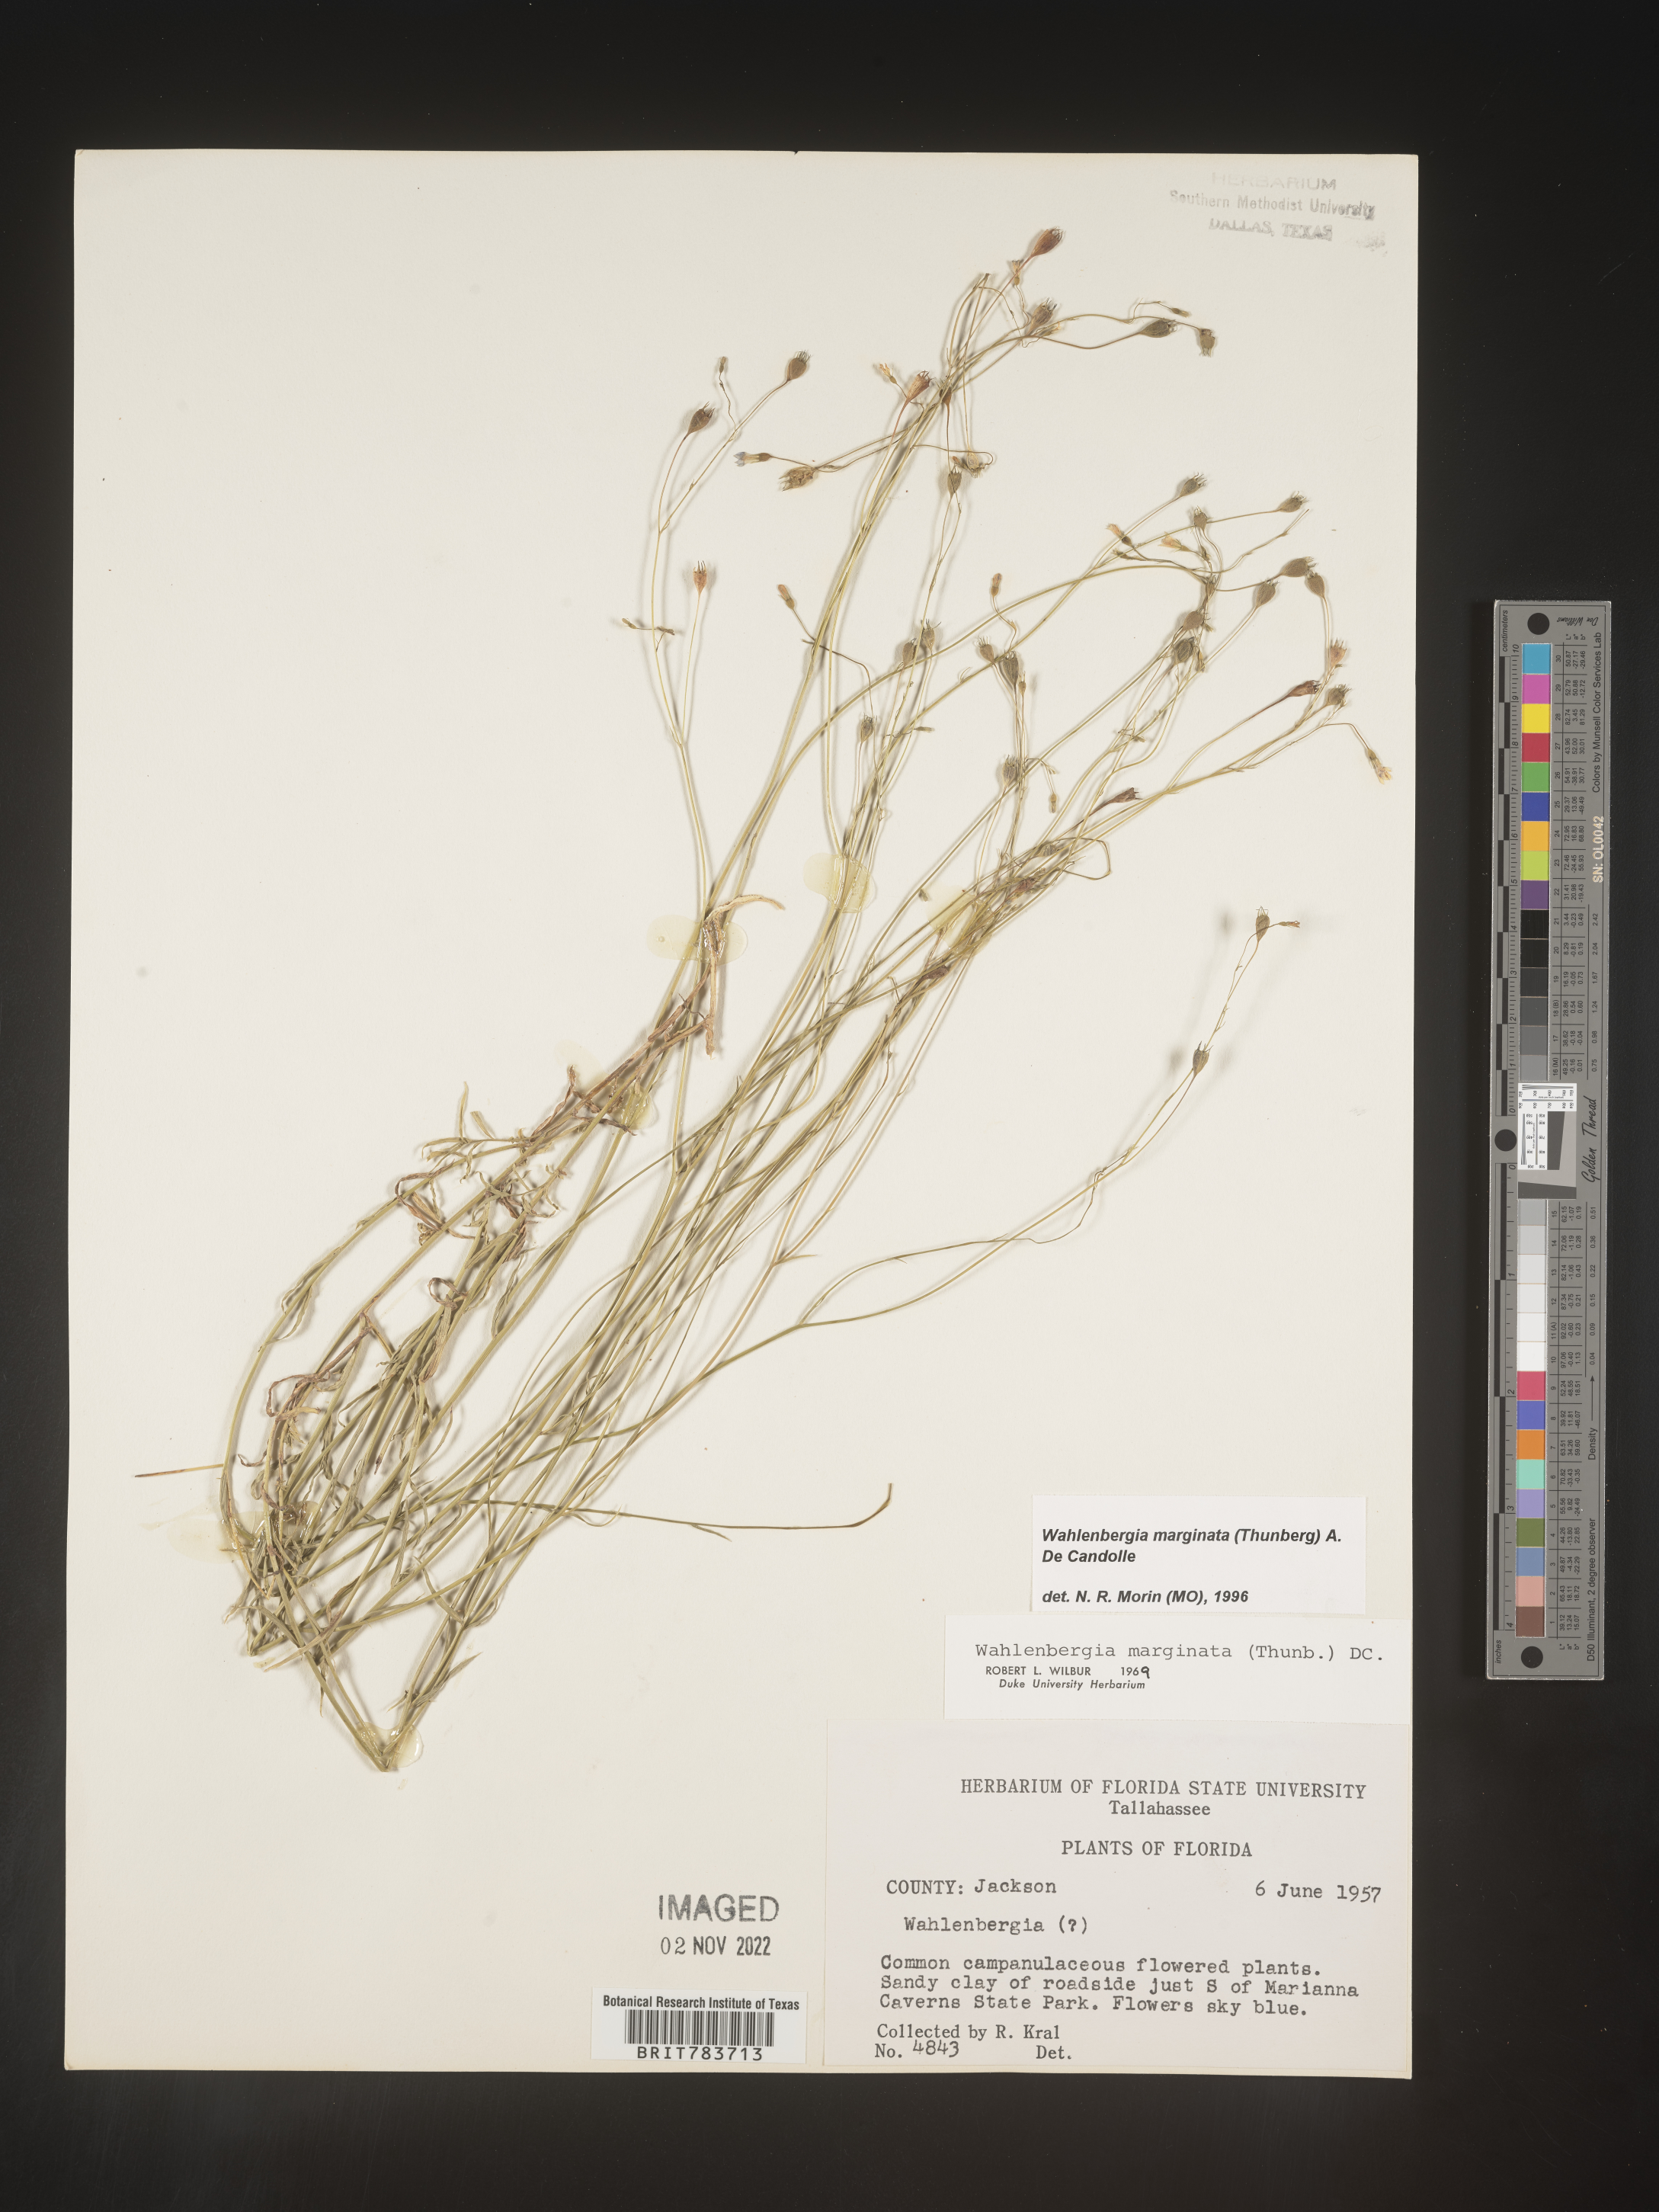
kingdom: Plantae
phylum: Tracheophyta
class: Magnoliopsida
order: Asterales
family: Campanulaceae
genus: Wahlenbergia
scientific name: Wahlenbergia marginata
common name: Southern rockbell
